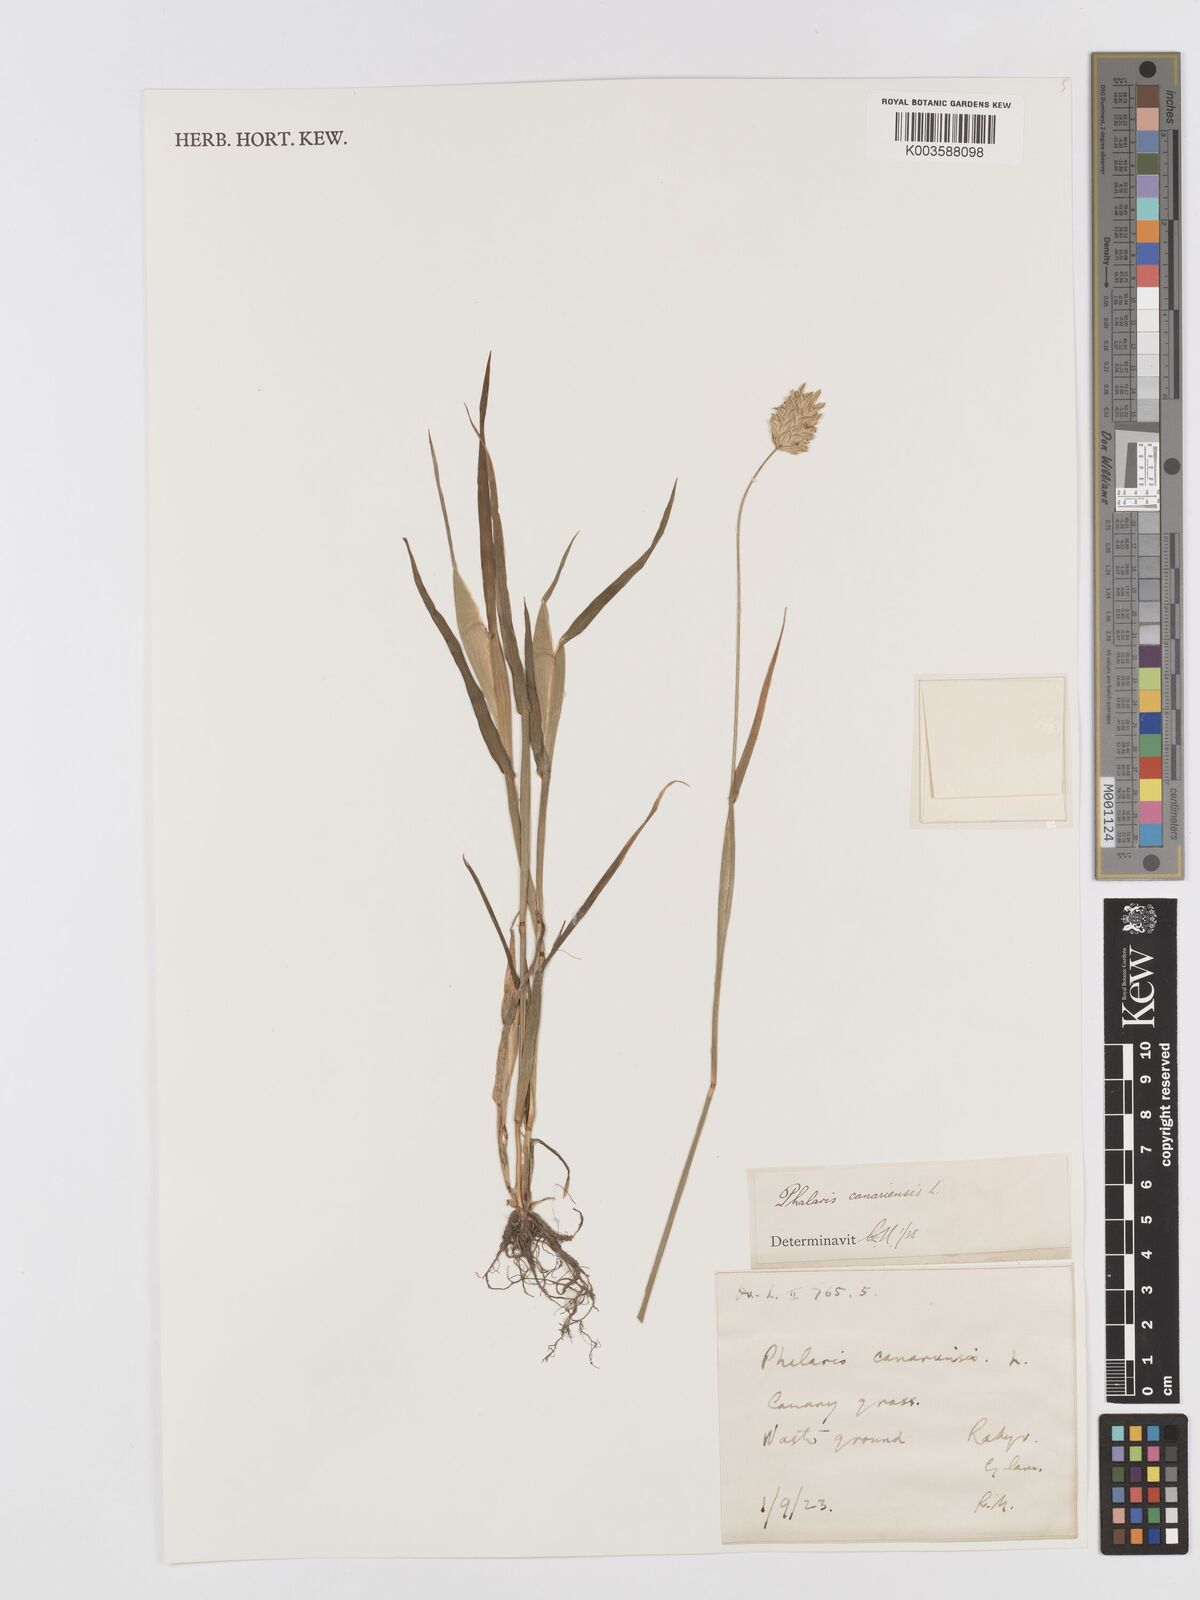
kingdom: Plantae
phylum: Tracheophyta
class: Liliopsida
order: Poales
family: Poaceae
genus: Phalaris
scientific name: Phalaris canariensis
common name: Annual canarygrass
